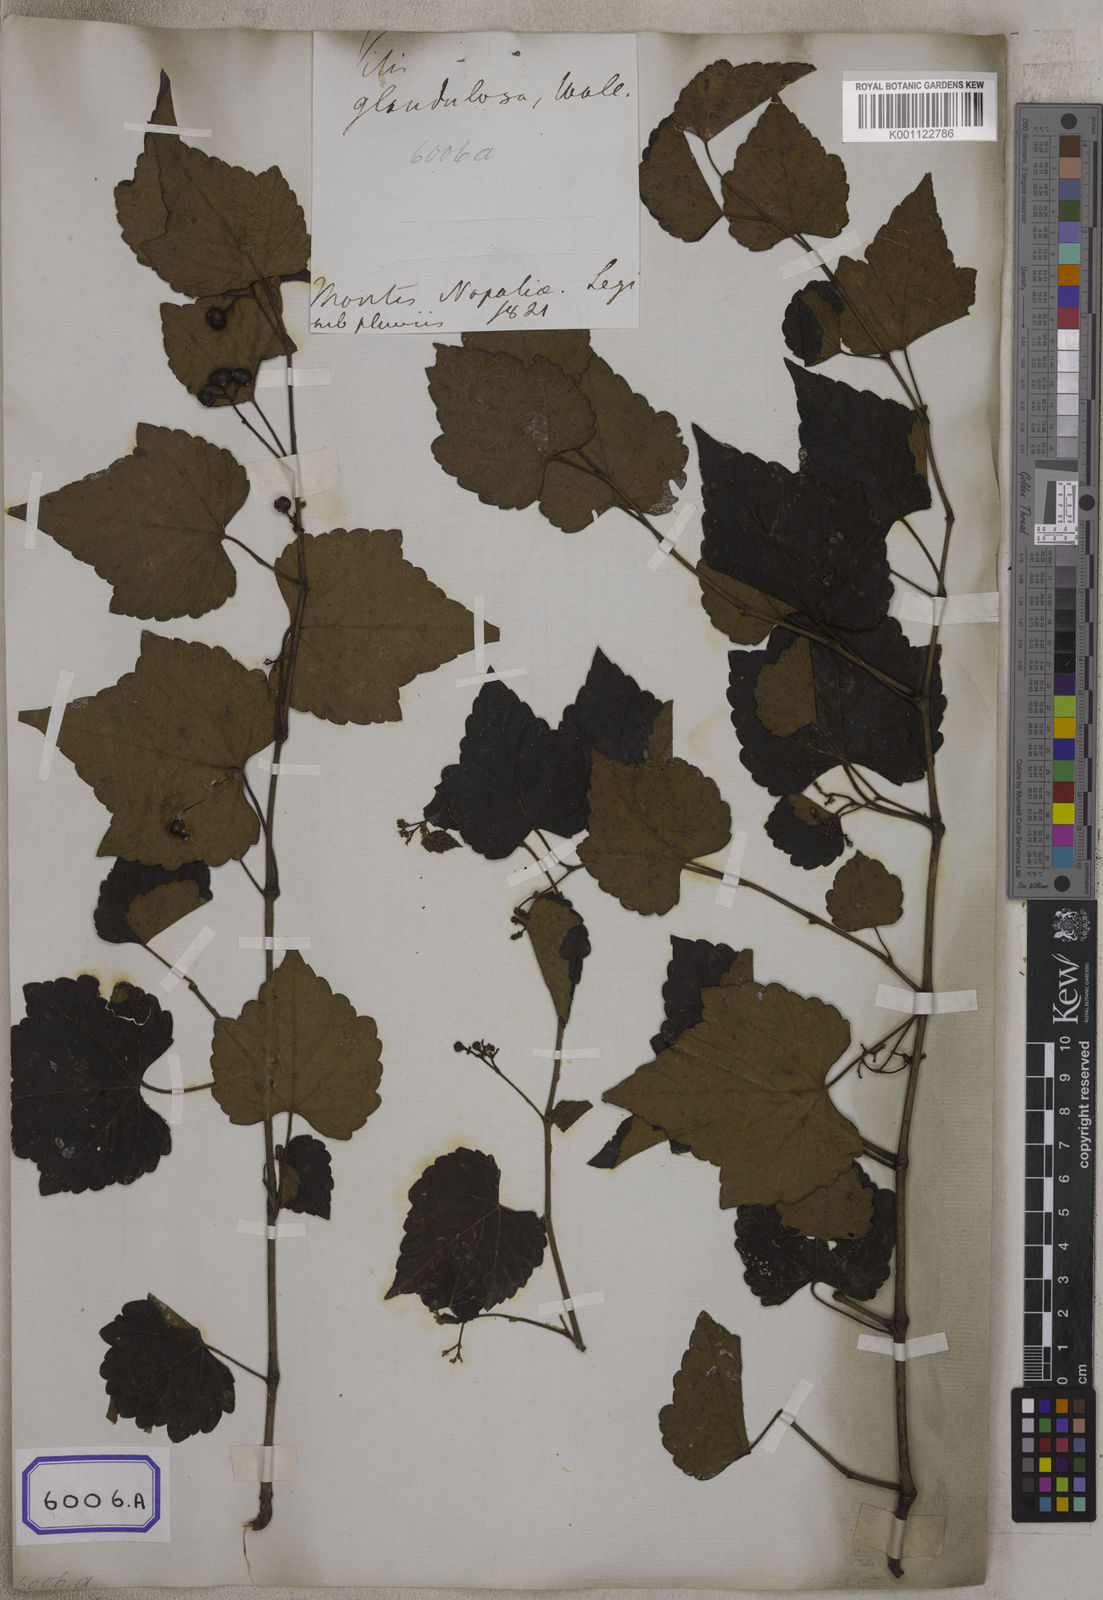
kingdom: Plantae
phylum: Tracheophyta
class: Magnoliopsida
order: Vitales
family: Vitaceae
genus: Ampelopsis
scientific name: Ampelopsis glandulosa
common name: Amur peppervine
